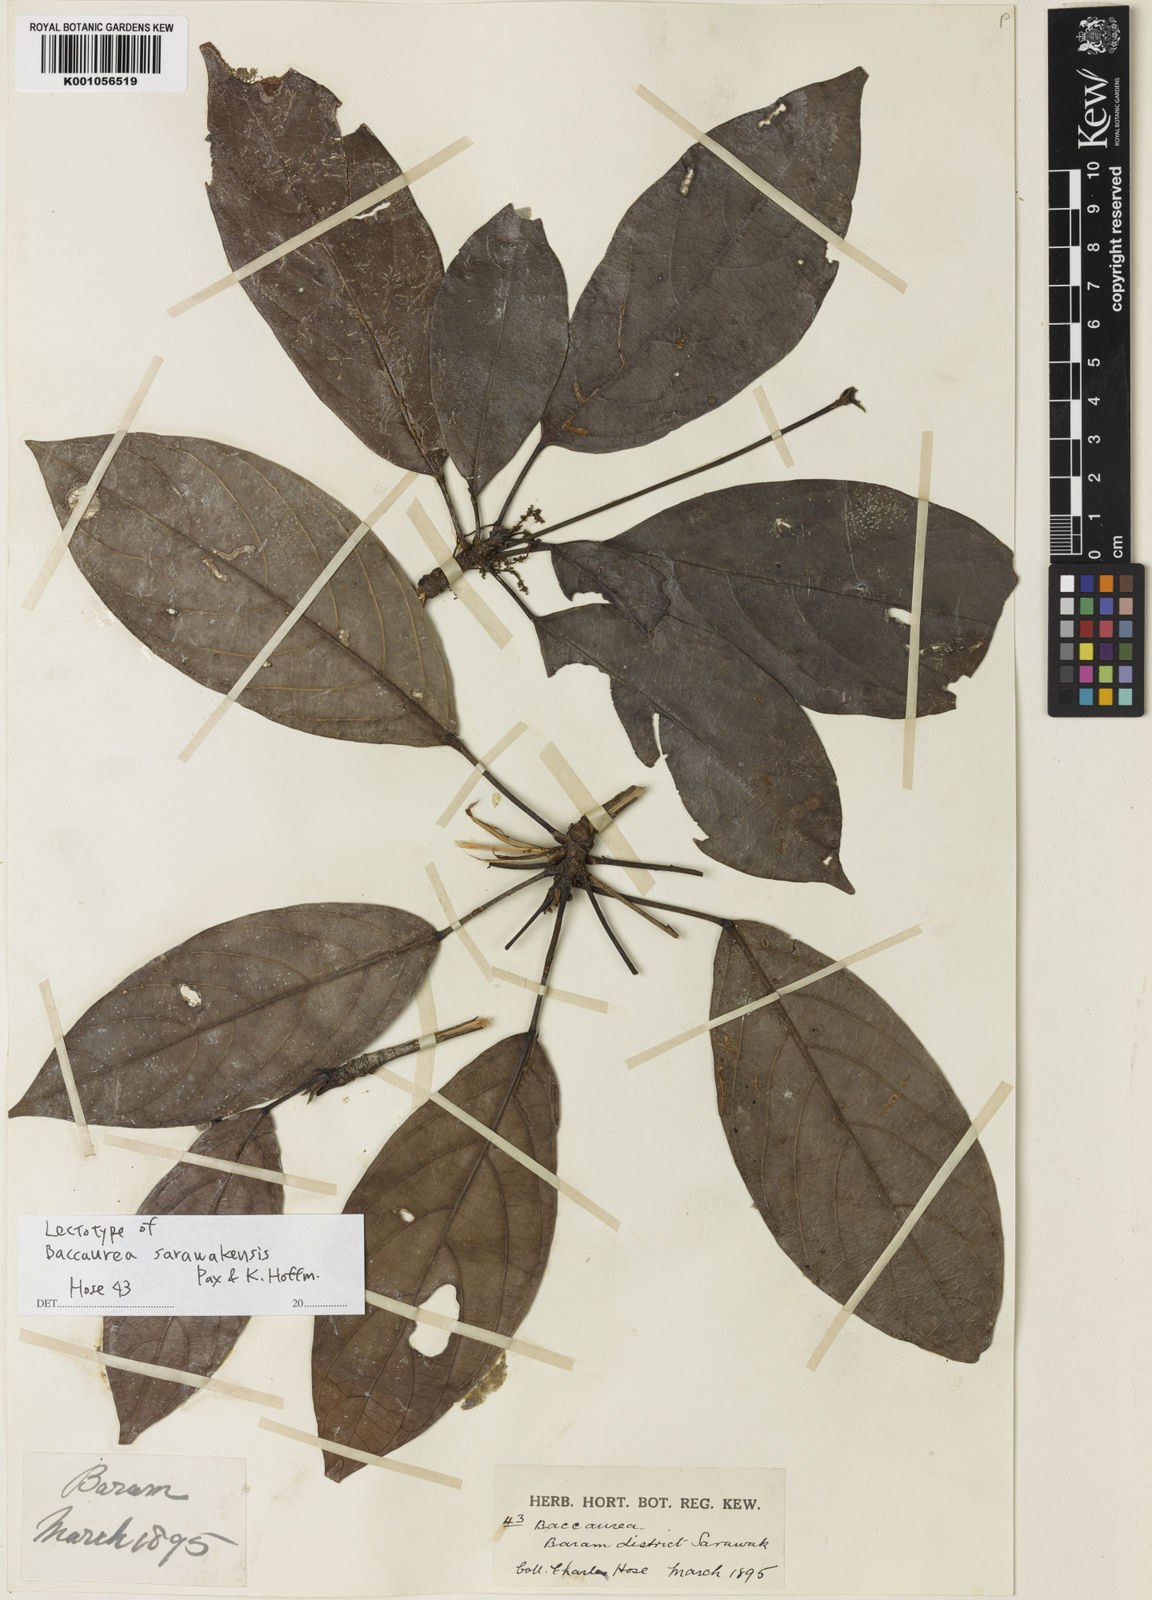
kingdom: Plantae
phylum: Tracheophyta
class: Magnoliopsida
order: Malpighiales
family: Phyllanthaceae
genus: Baccaurea
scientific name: Baccaurea sarawakensis
